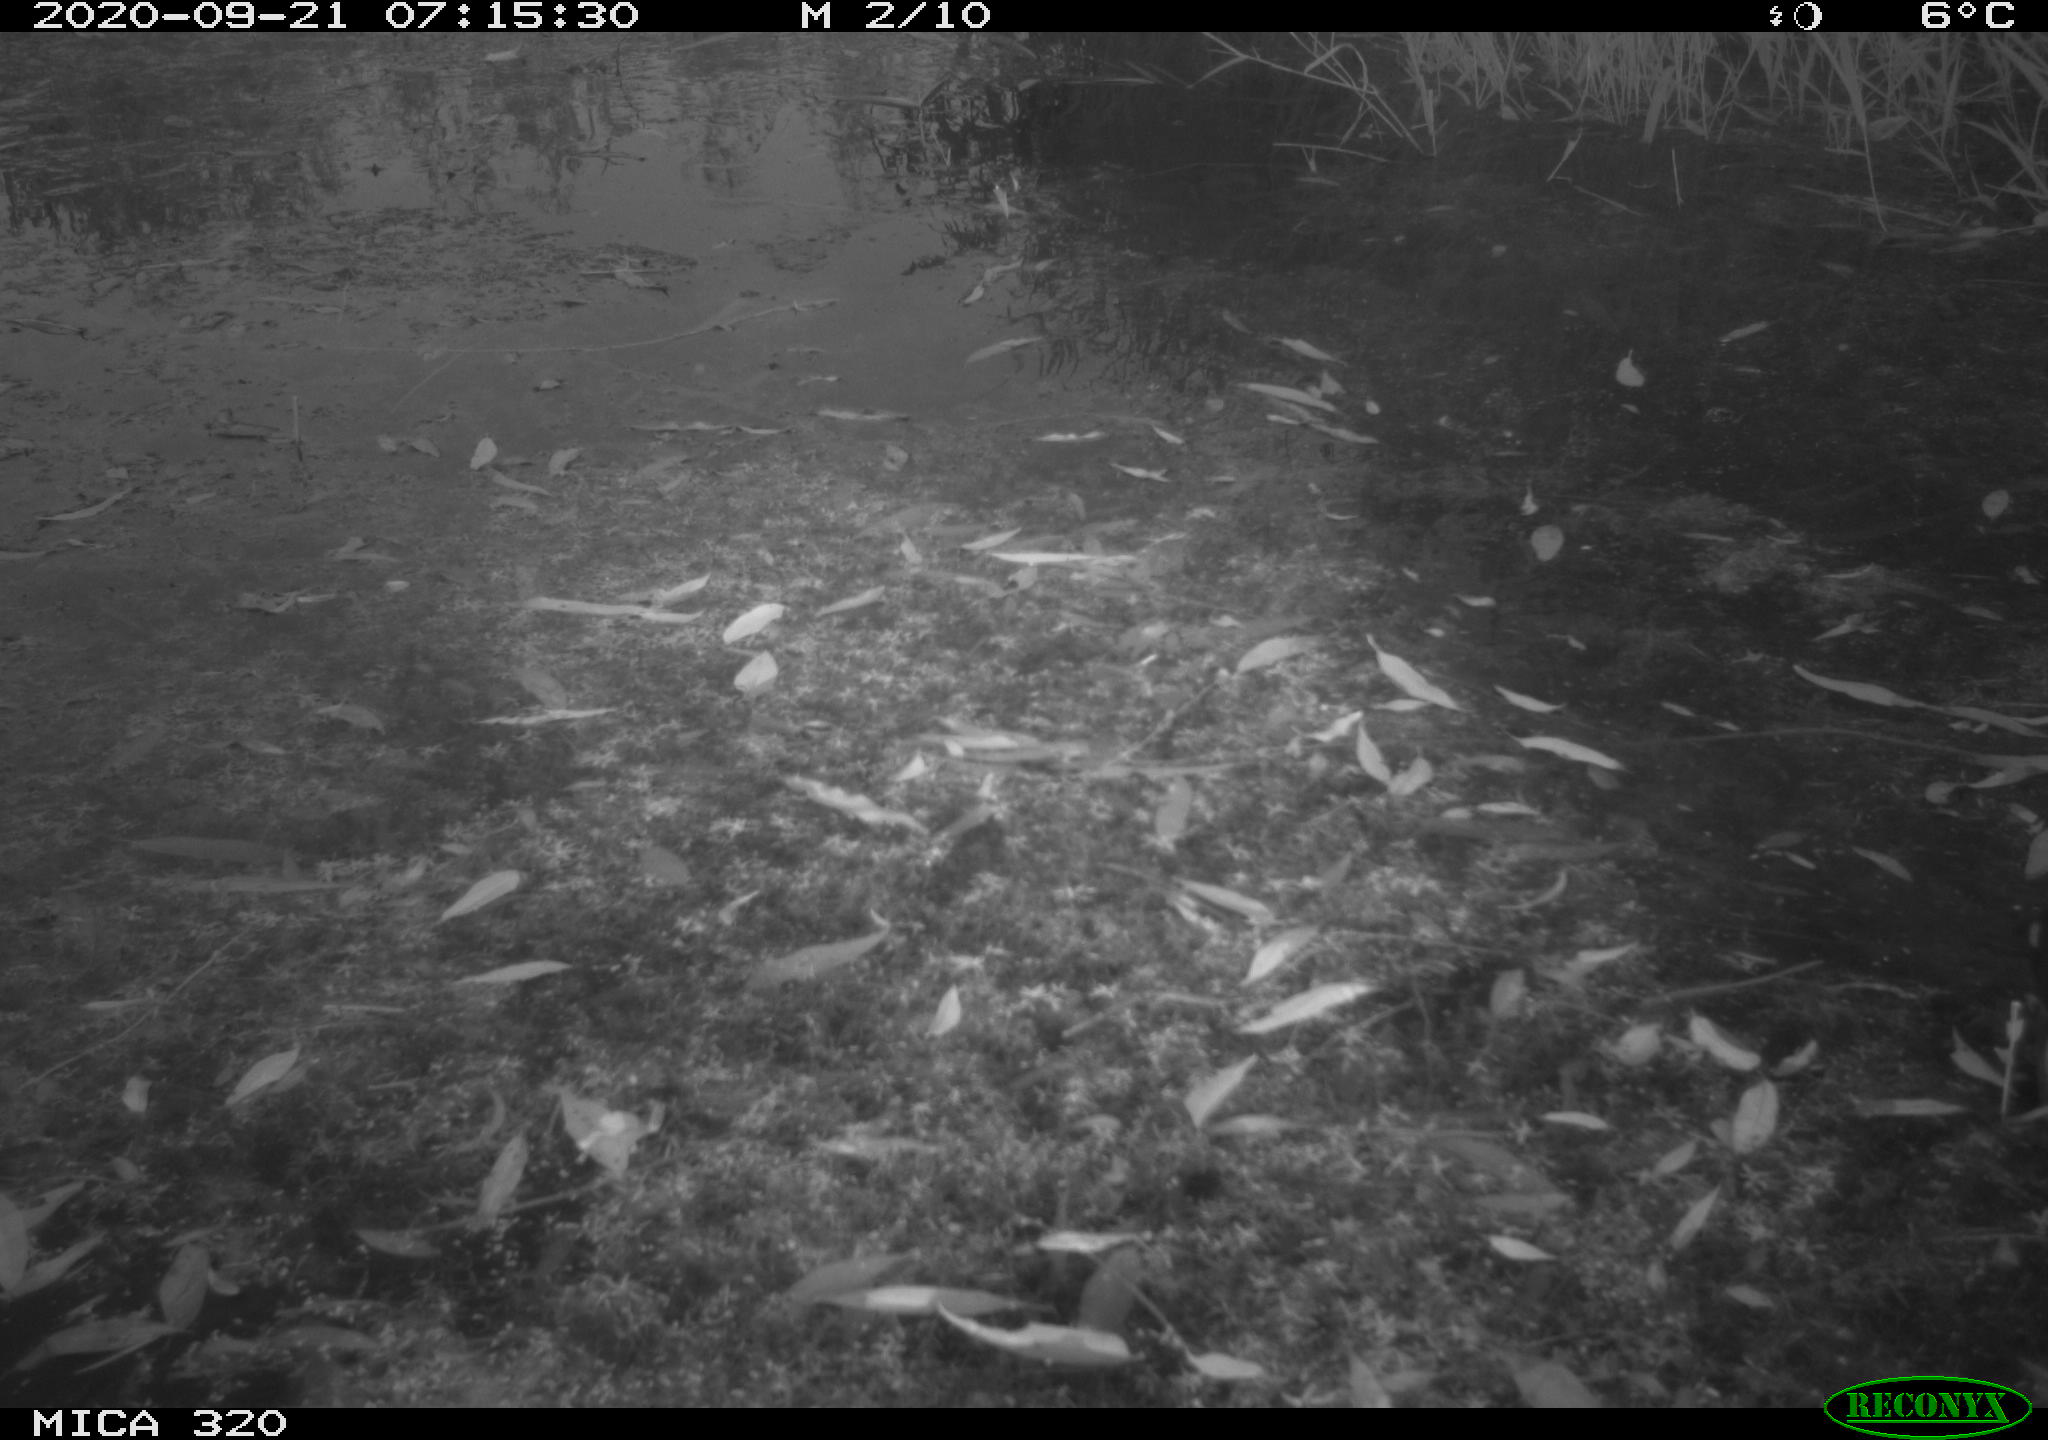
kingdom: Animalia
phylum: Chordata
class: Aves
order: Gruiformes
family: Rallidae
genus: Gallinula
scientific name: Gallinula chloropus
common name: Common moorhen
